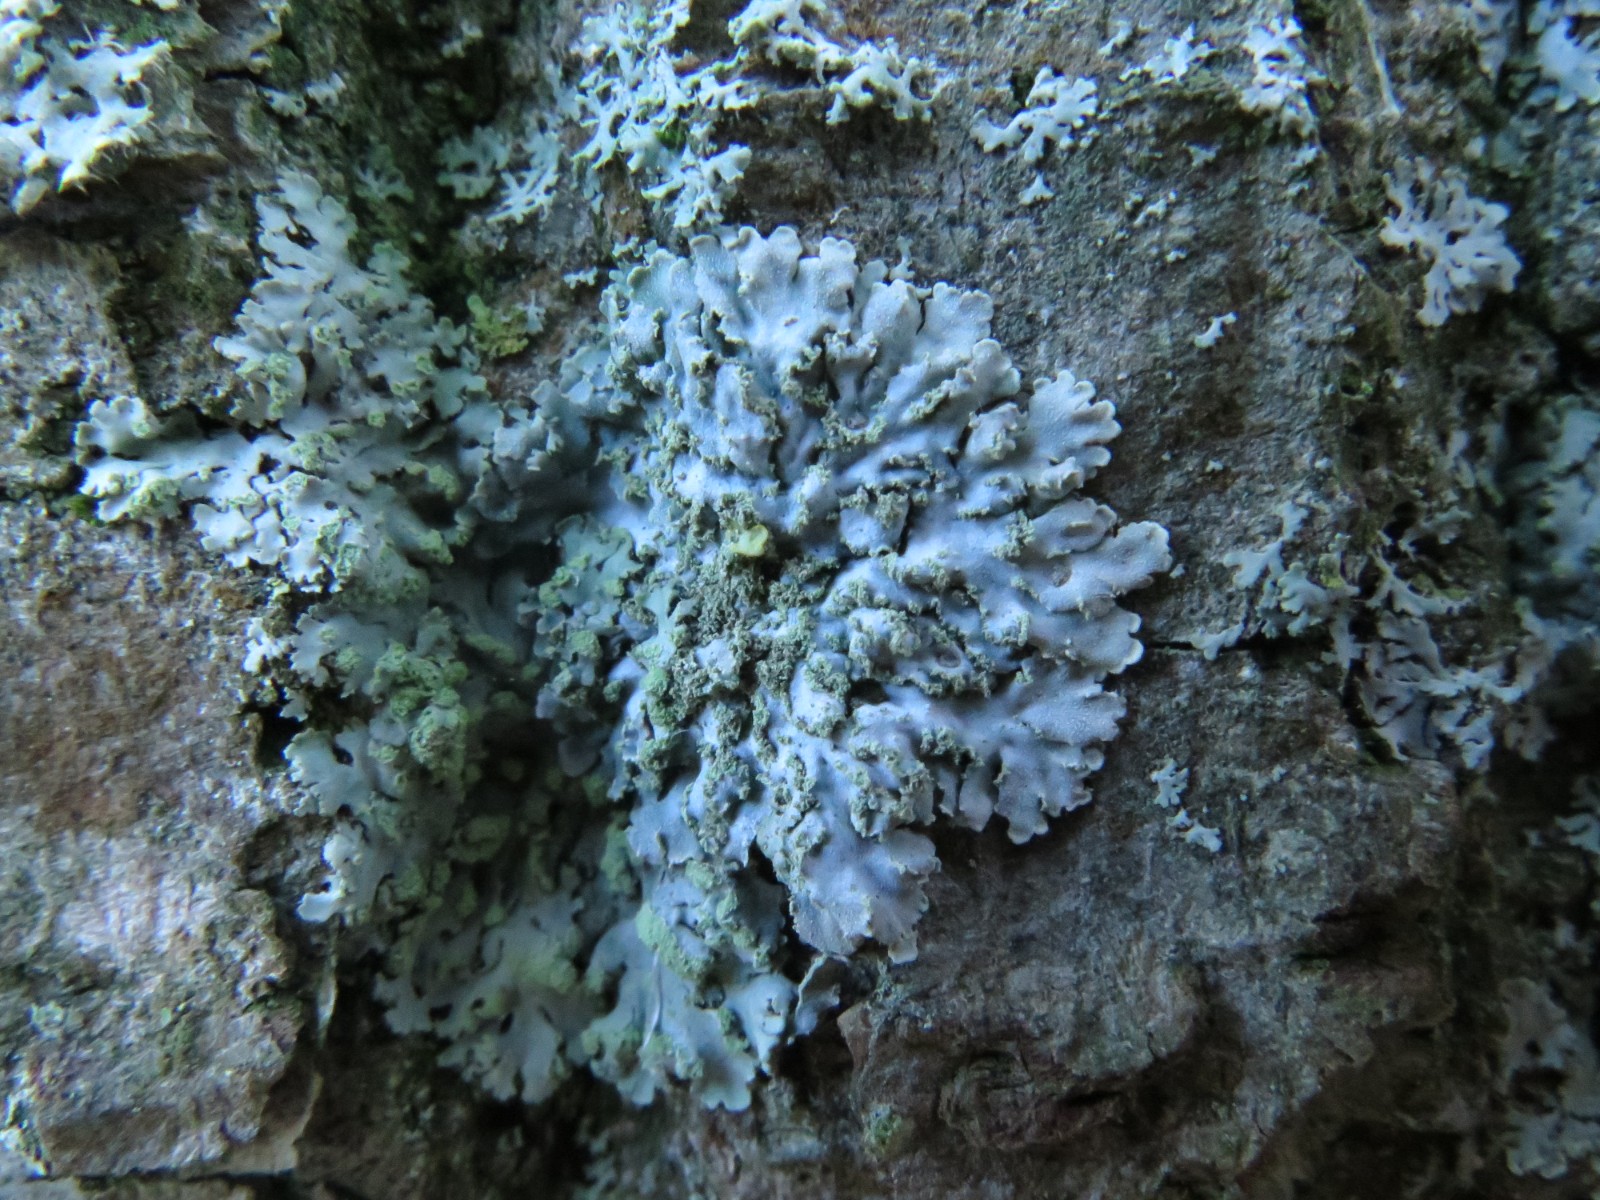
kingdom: Fungi
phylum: Ascomycota
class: Lecanoromycetes
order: Caliciales
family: Physciaceae
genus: Poeltonia
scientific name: Poeltonia grisea
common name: hvidgrå dugrosetlav
